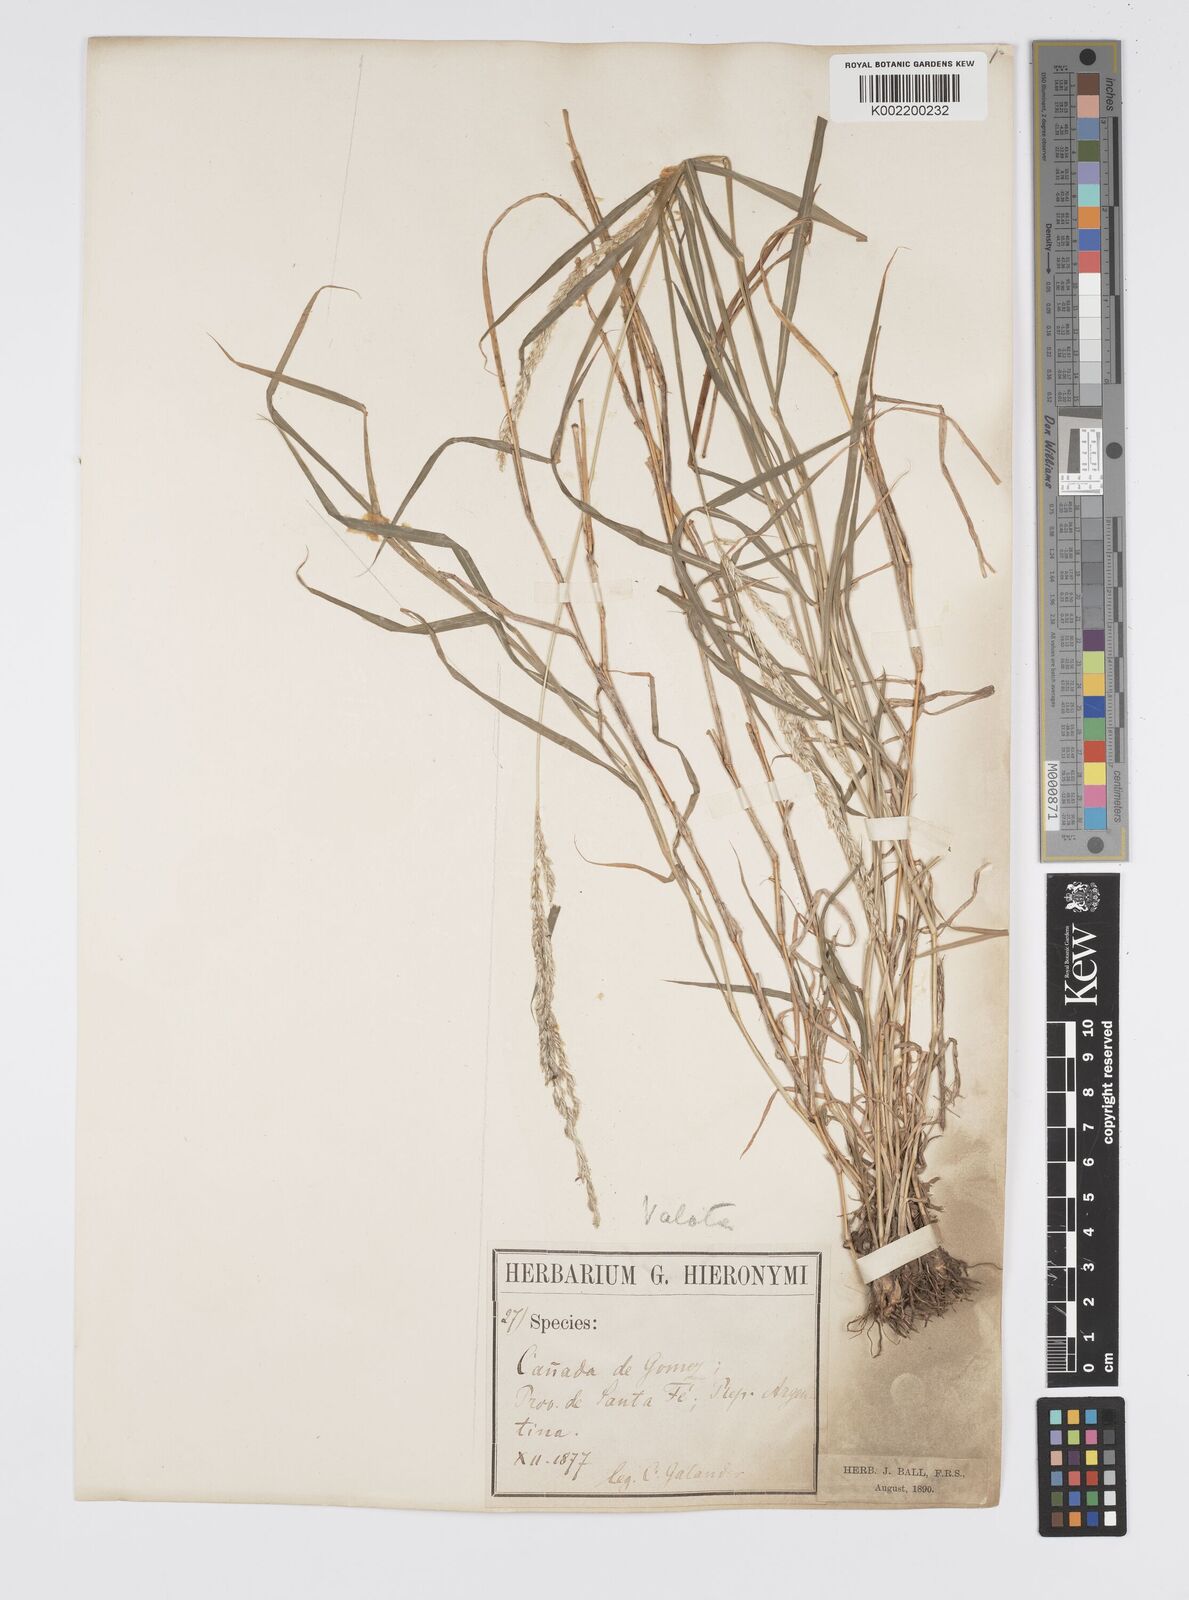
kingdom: Plantae
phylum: Tracheophyta
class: Liliopsida
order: Poales
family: Poaceae
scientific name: Poaceae
